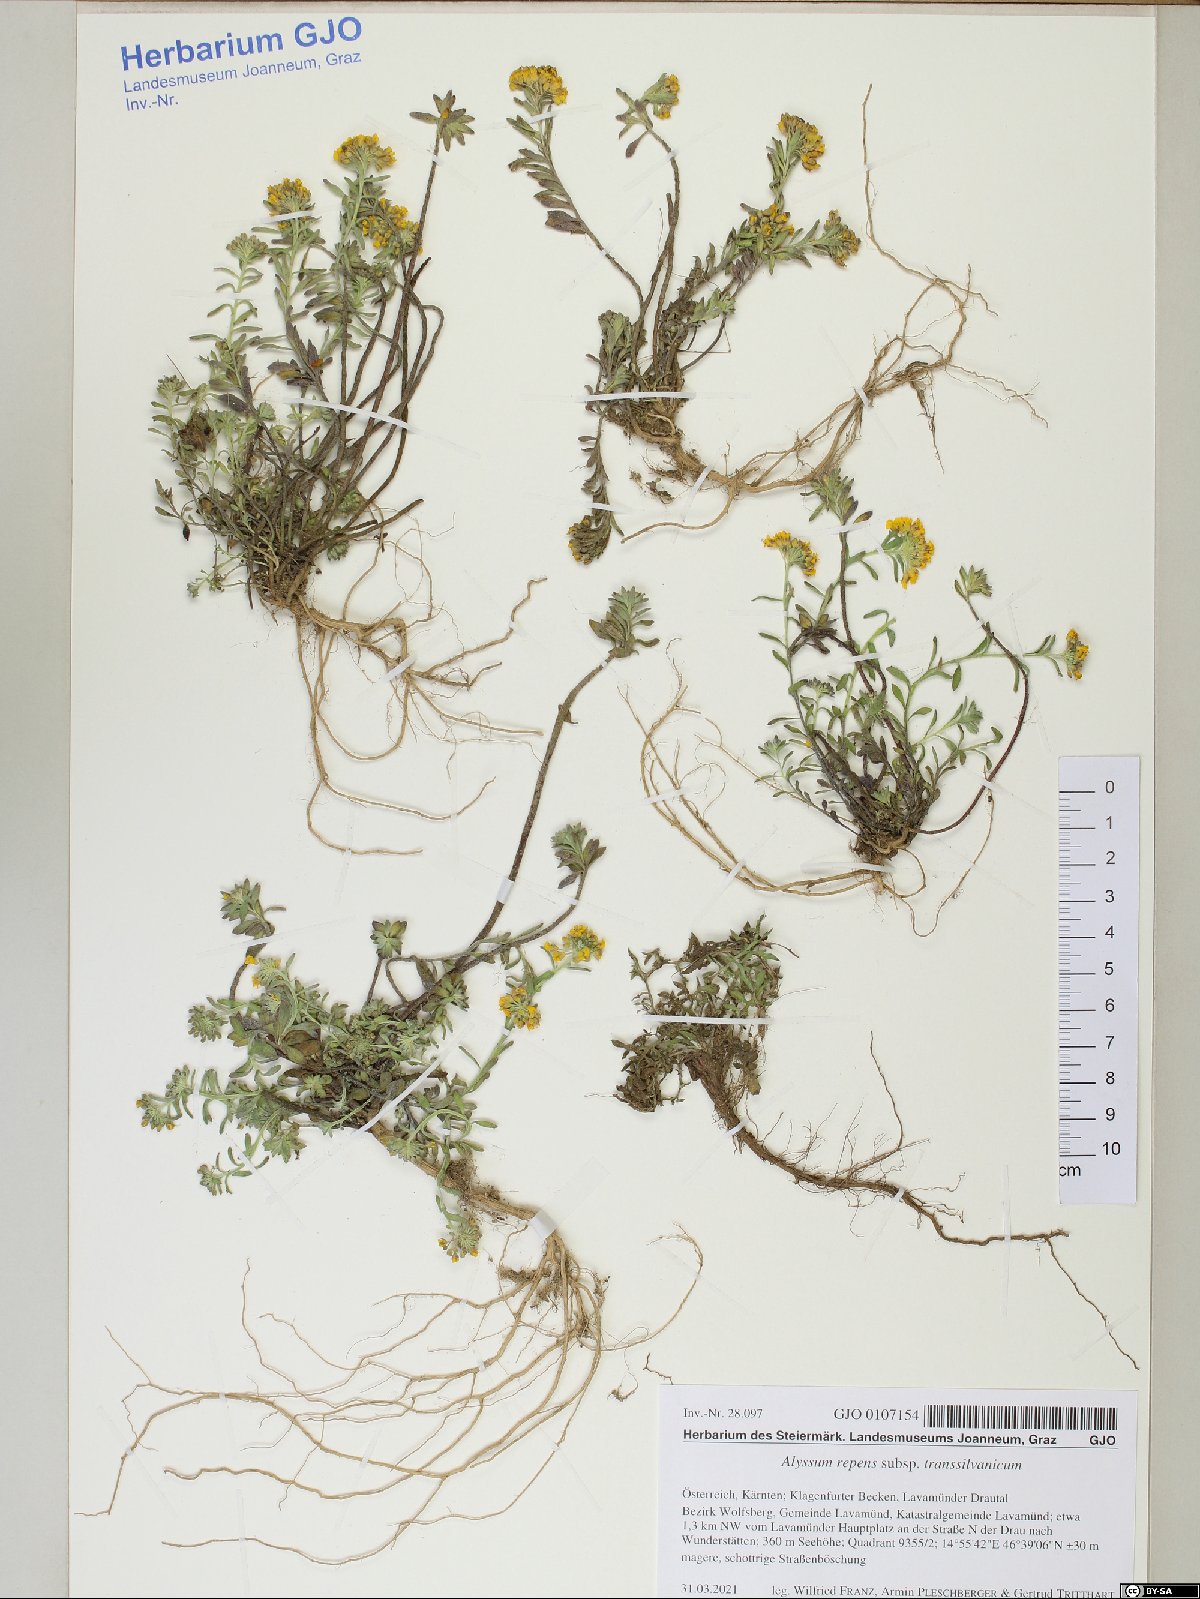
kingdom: Plantae
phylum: Tracheophyta
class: Magnoliopsida
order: Brassicales
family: Brassicaceae
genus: Alyssum
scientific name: Alyssum repens
